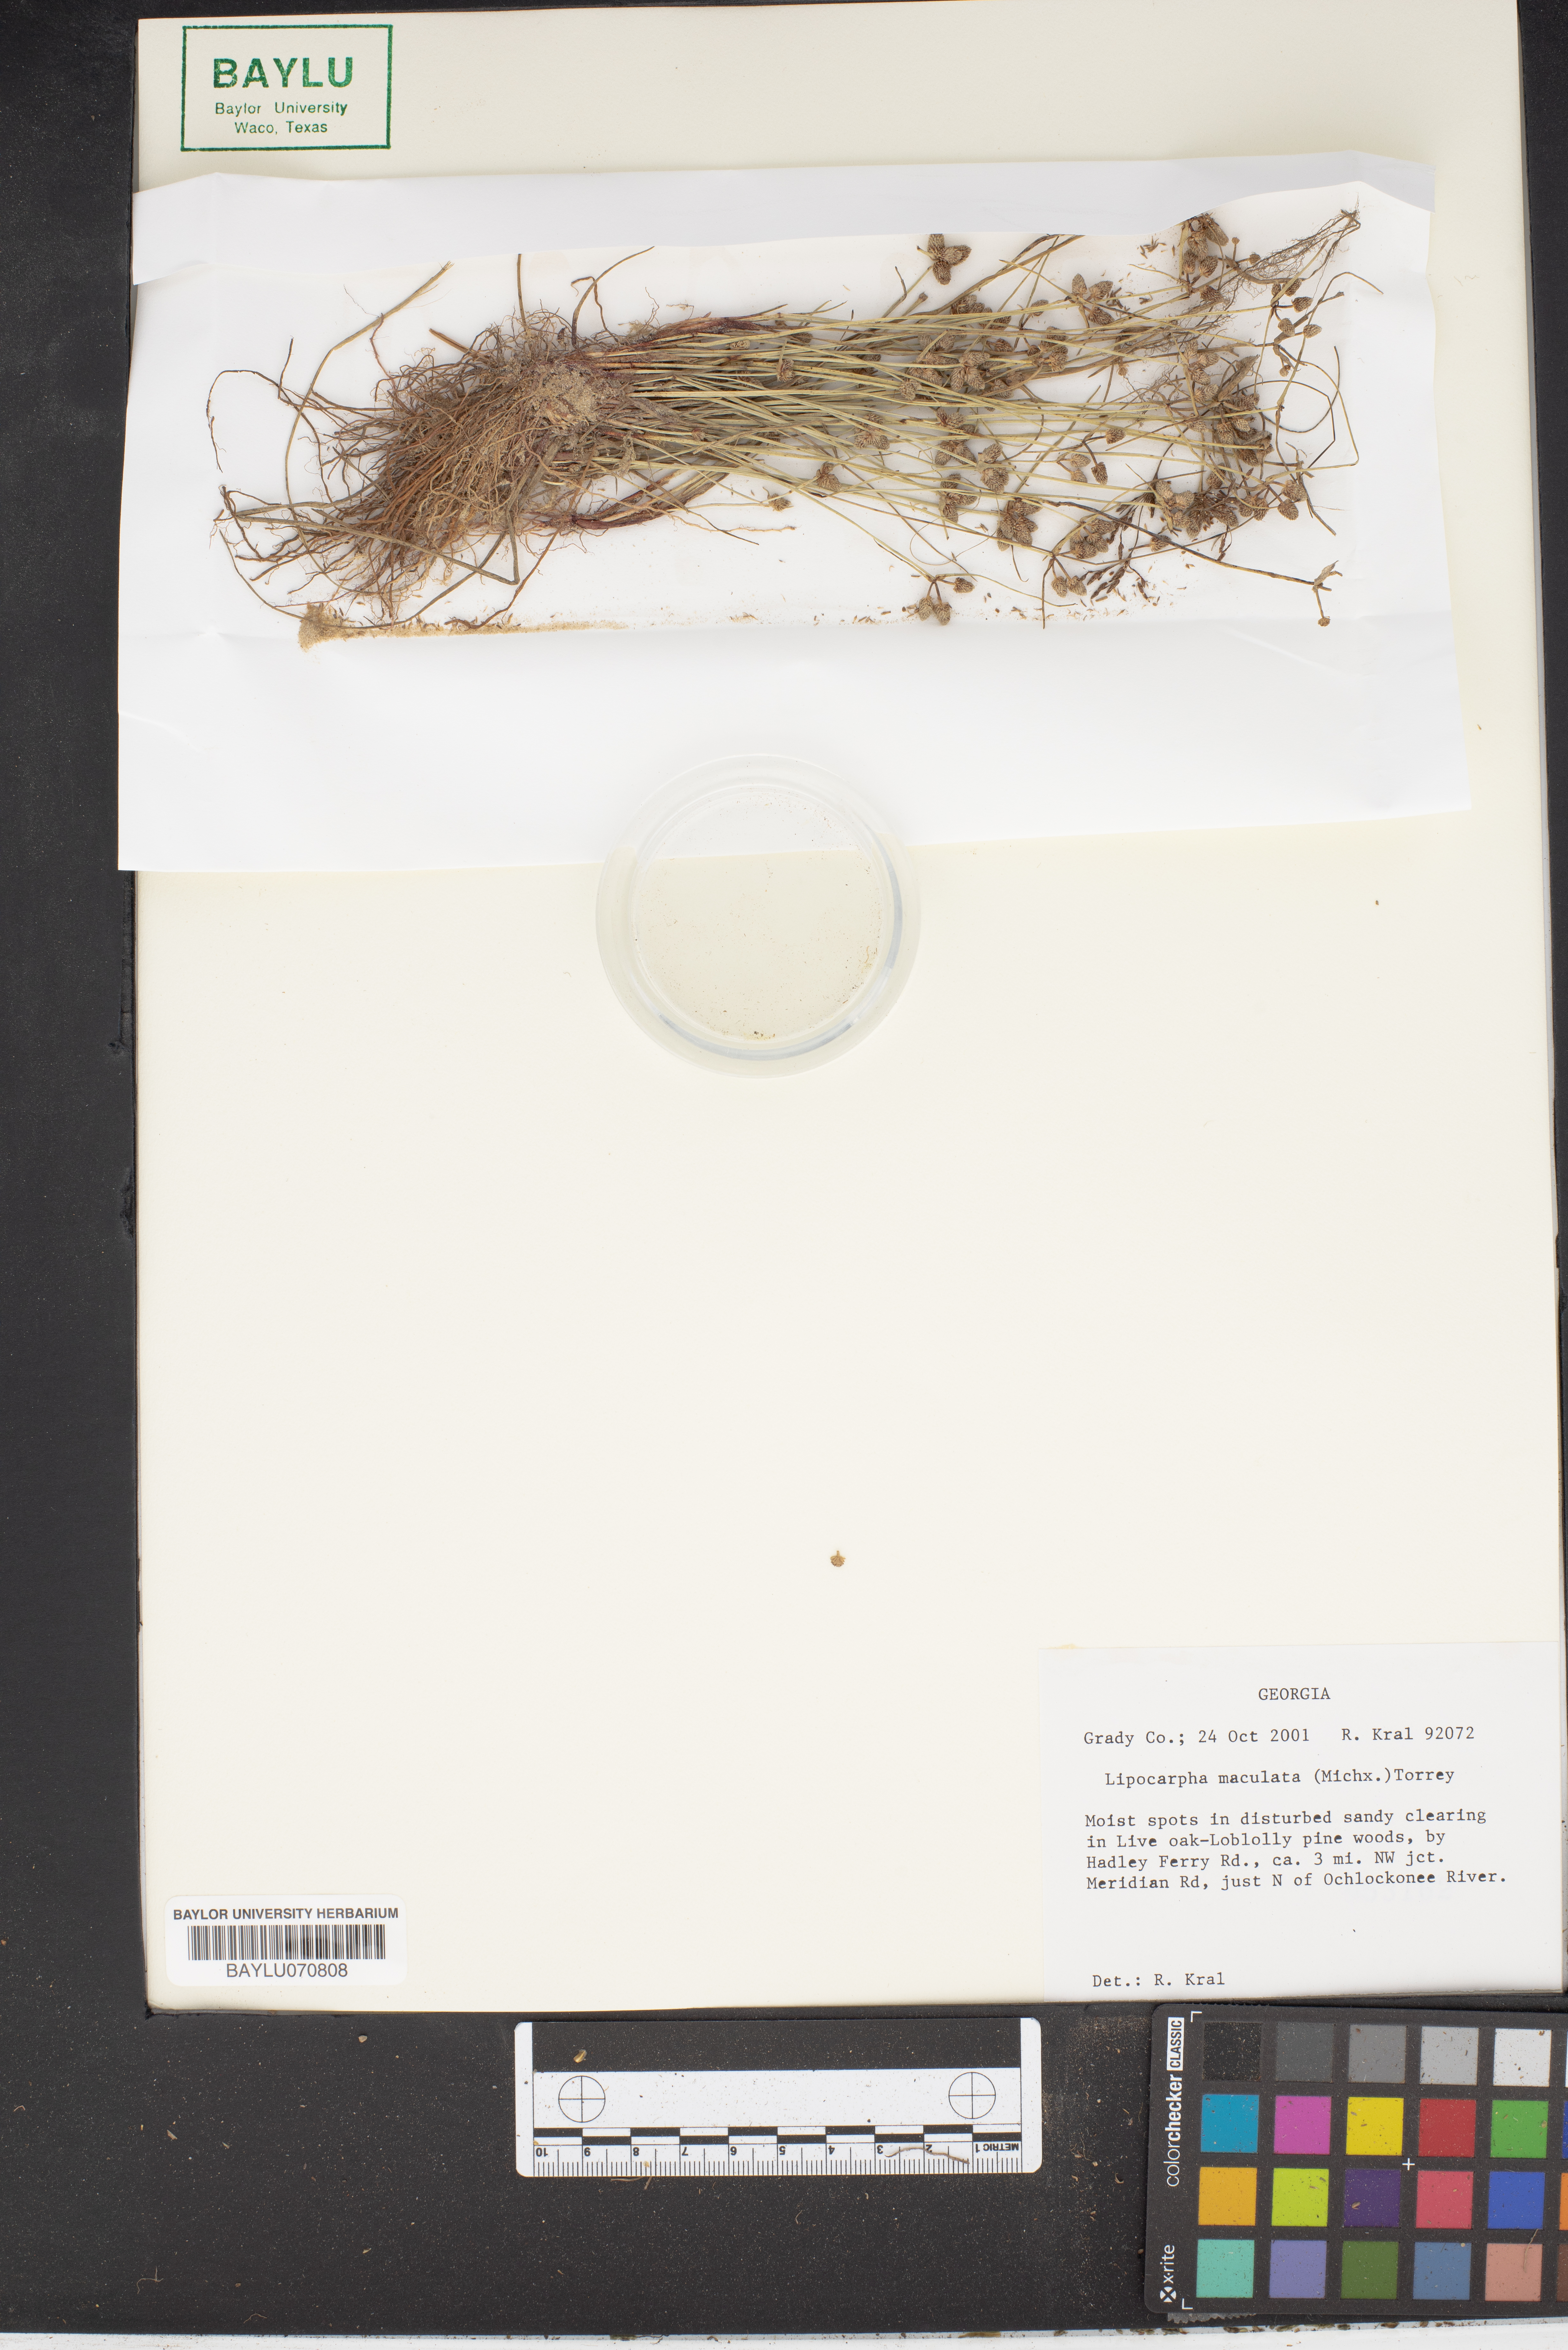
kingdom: Plantae
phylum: Tracheophyta
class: Liliopsida
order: Poales
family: Cyperaceae
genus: Cyperus
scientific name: Cyperus neotropicalis
